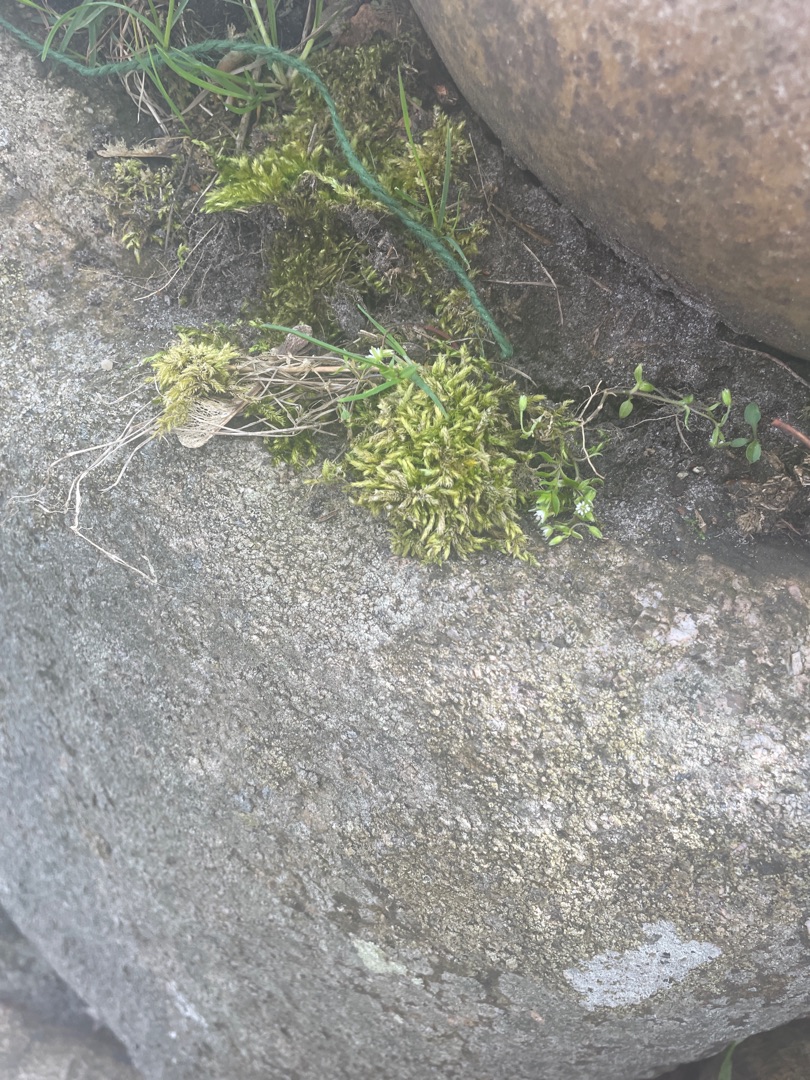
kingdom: Plantae
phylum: Bryophyta
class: Bryopsida
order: Hypnales
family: Brachytheciaceae
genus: Brachythecium
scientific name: Brachythecium rutabulum
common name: Almindelig kortkapsel
